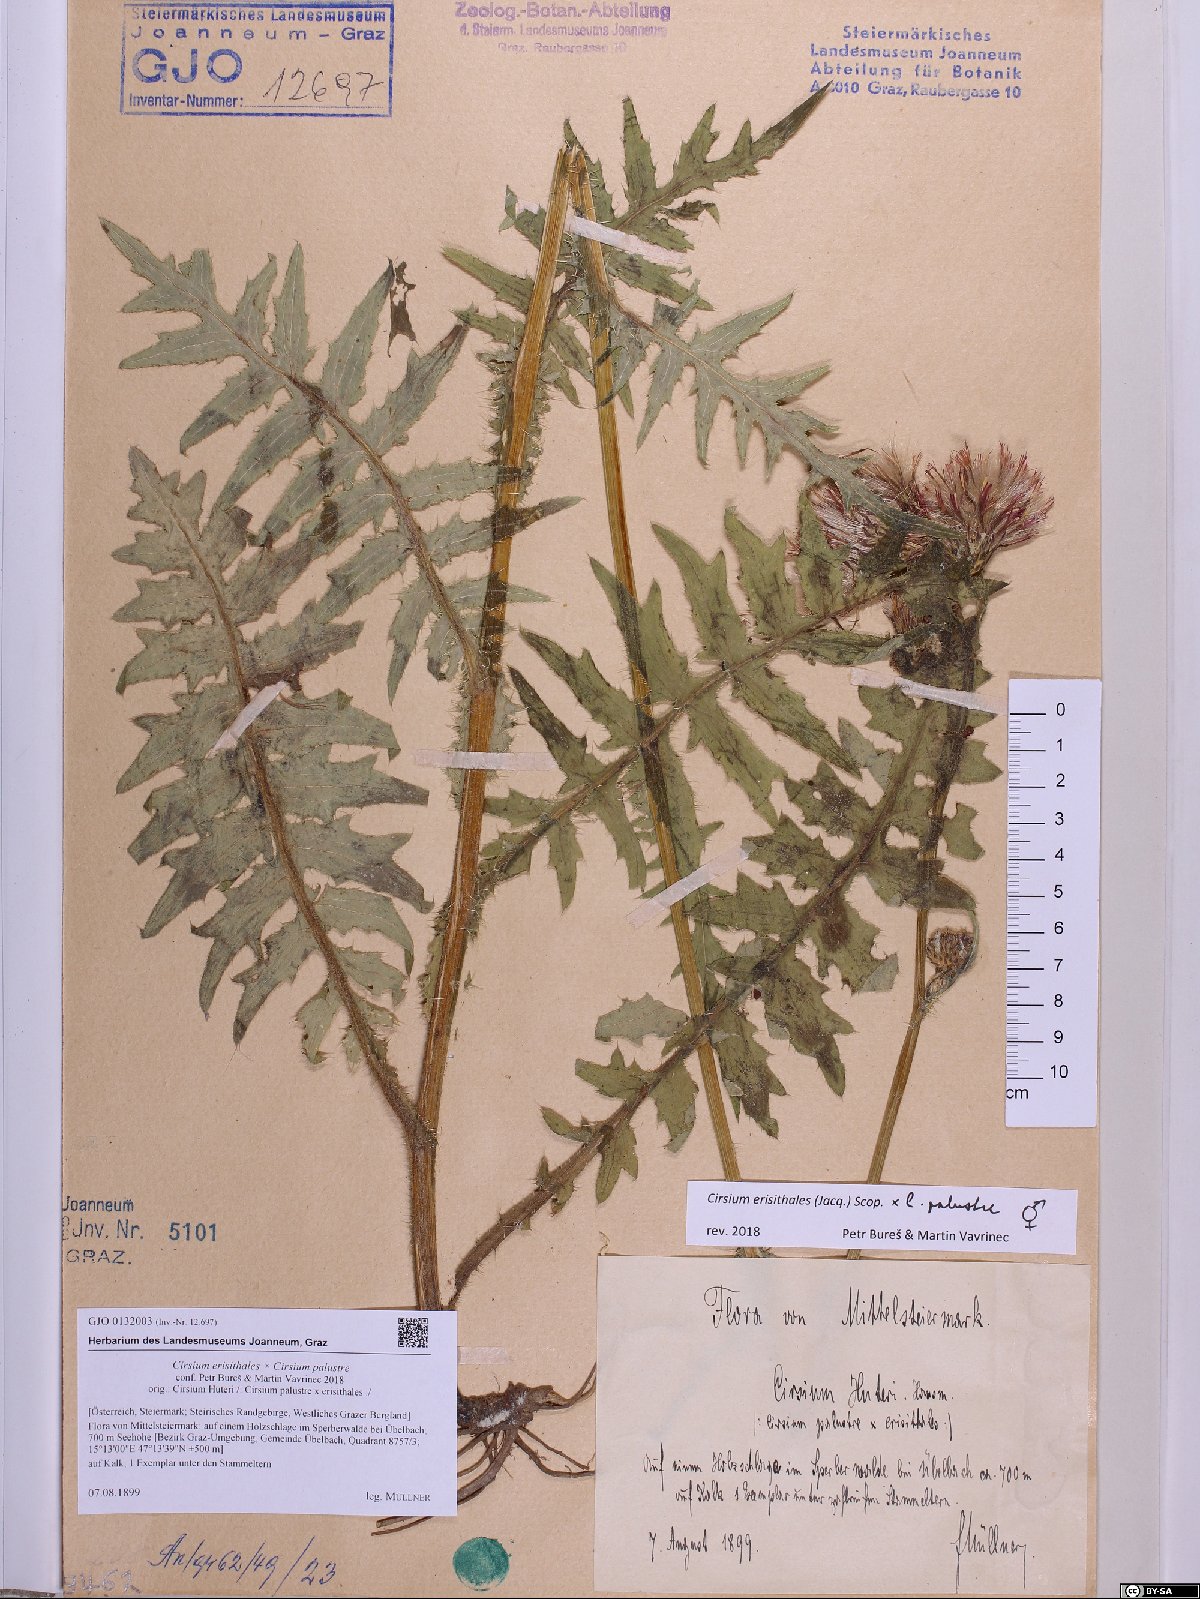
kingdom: Plantae
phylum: Tracheophyta
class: Magnoliopsida
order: Asterales
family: Asteraceae
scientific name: Asteraceae
